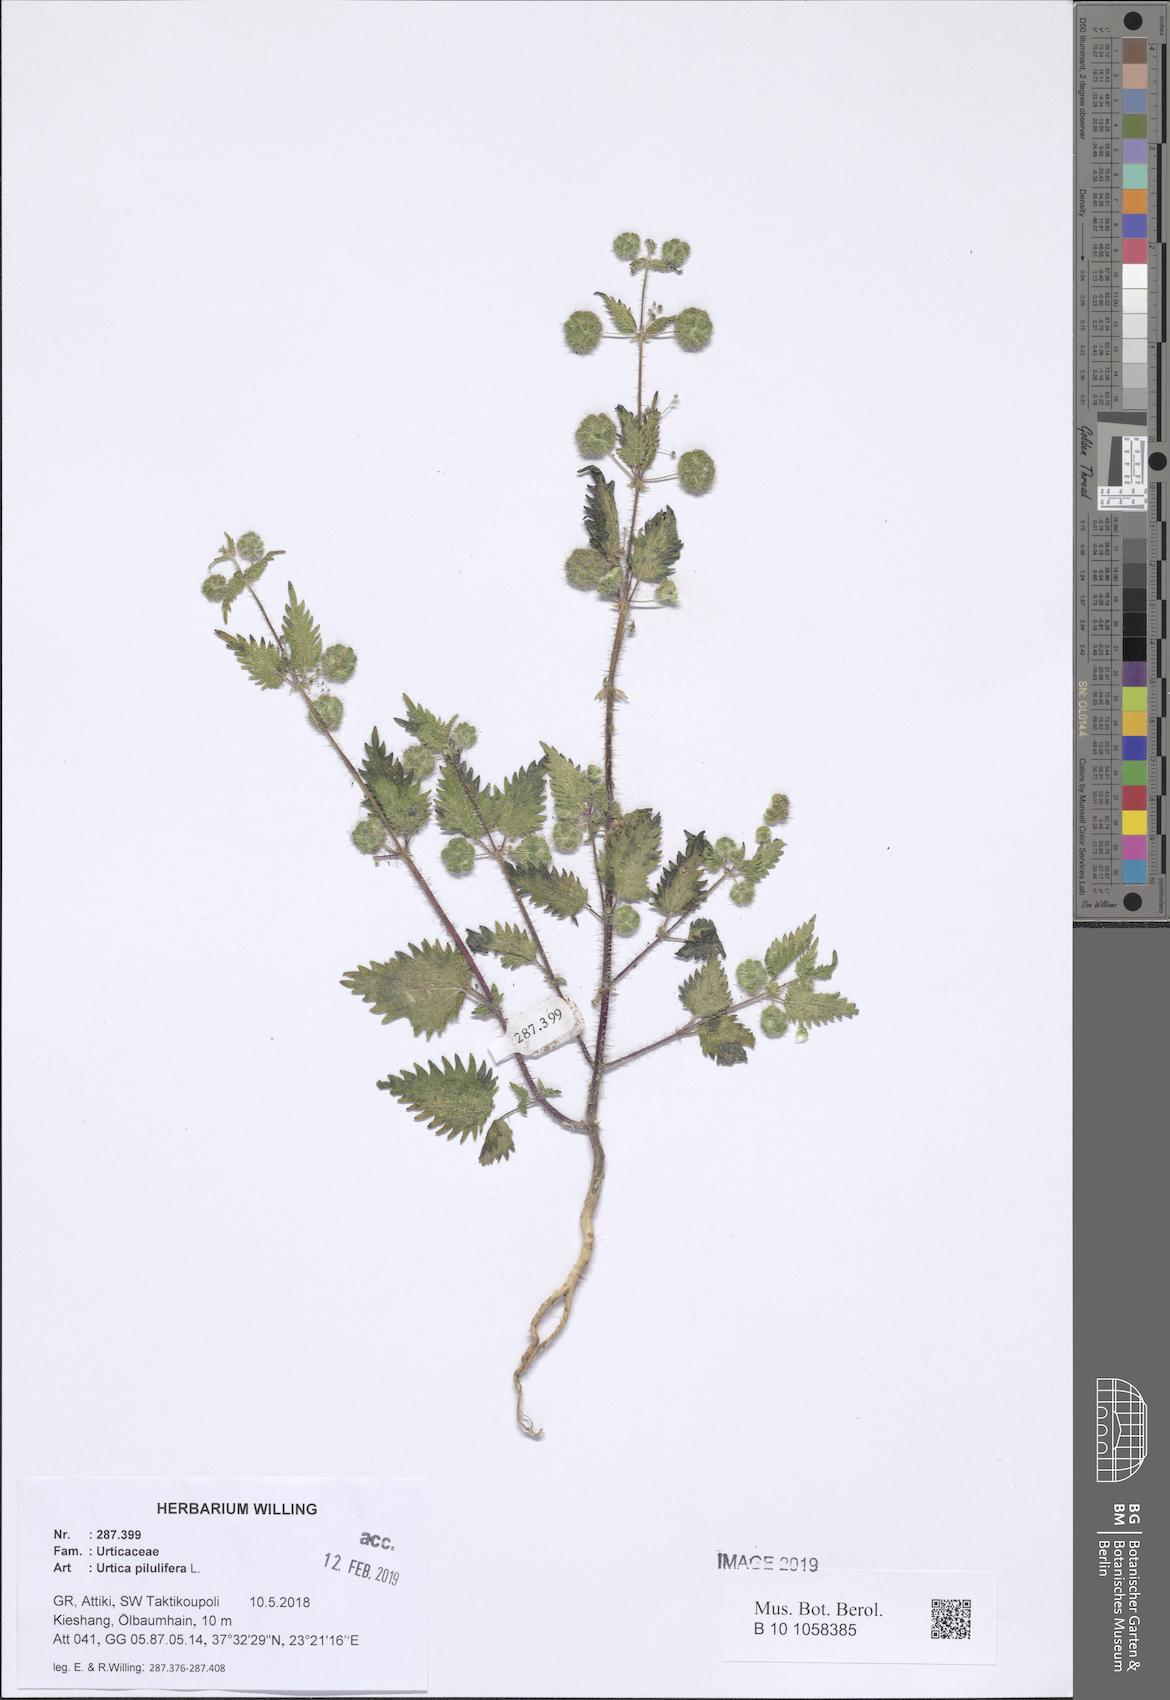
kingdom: Plantae
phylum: Tracheophyta
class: Magnoliopsida
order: Rosales
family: Urticaceae
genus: Urtica
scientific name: Urtica pilulifera
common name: Roman nettle
